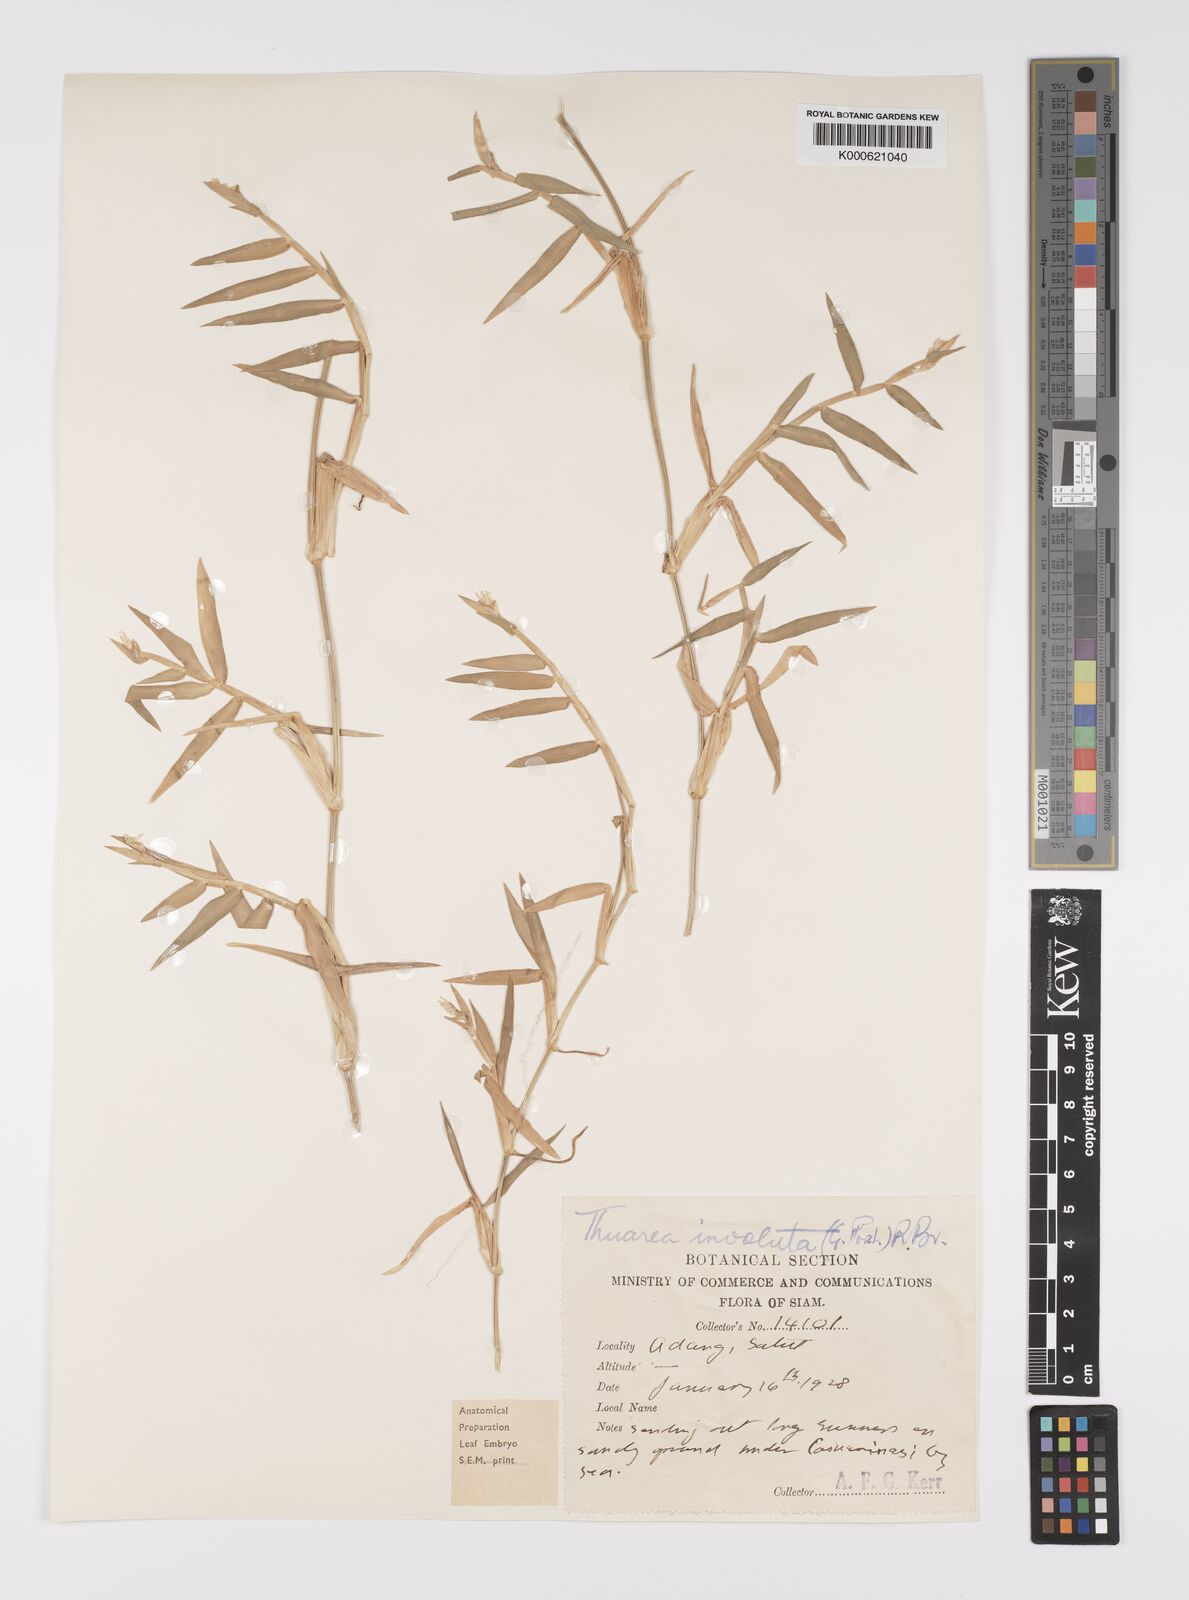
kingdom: Plantae
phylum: Tracheophyta
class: Liliopsida
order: Poales
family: Poaceae
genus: Thuarea
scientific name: Thuarea involuta
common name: Tropical beach grass
